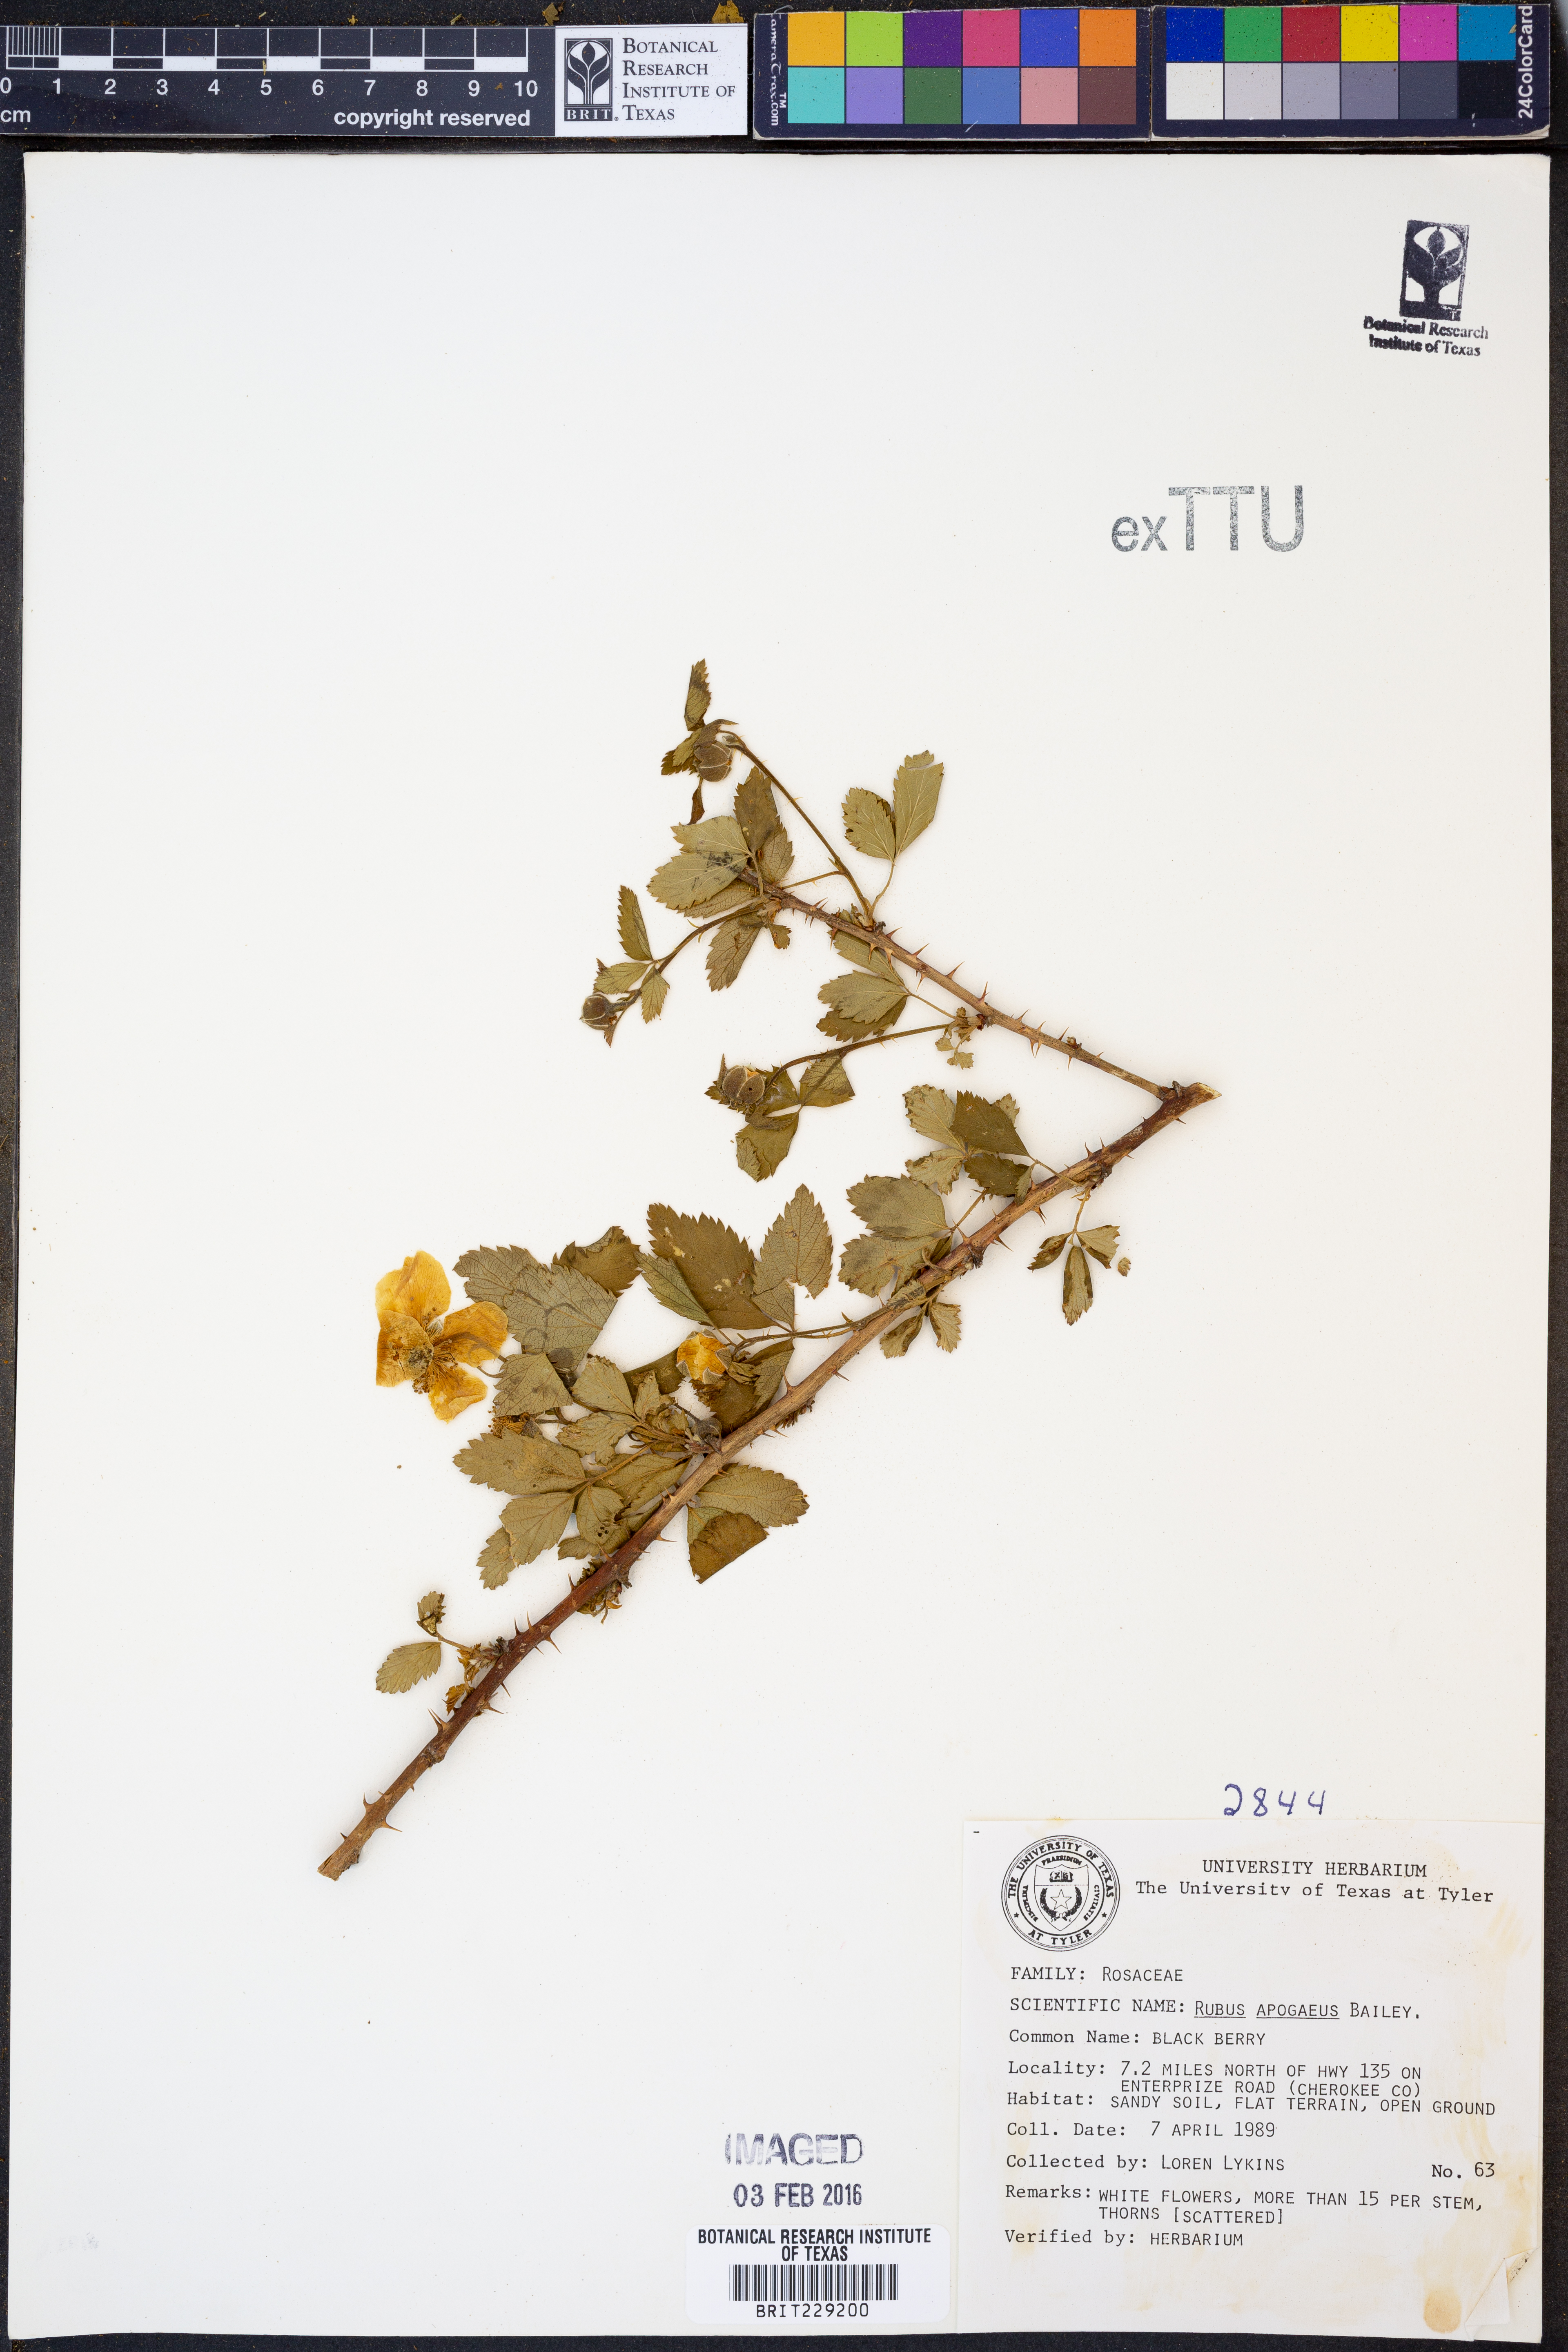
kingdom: Plantae
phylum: Tracheophyta
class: Magnoliopsida
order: Rosales
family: Rosaceae
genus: Rubus
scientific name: Rubus apogaeus
